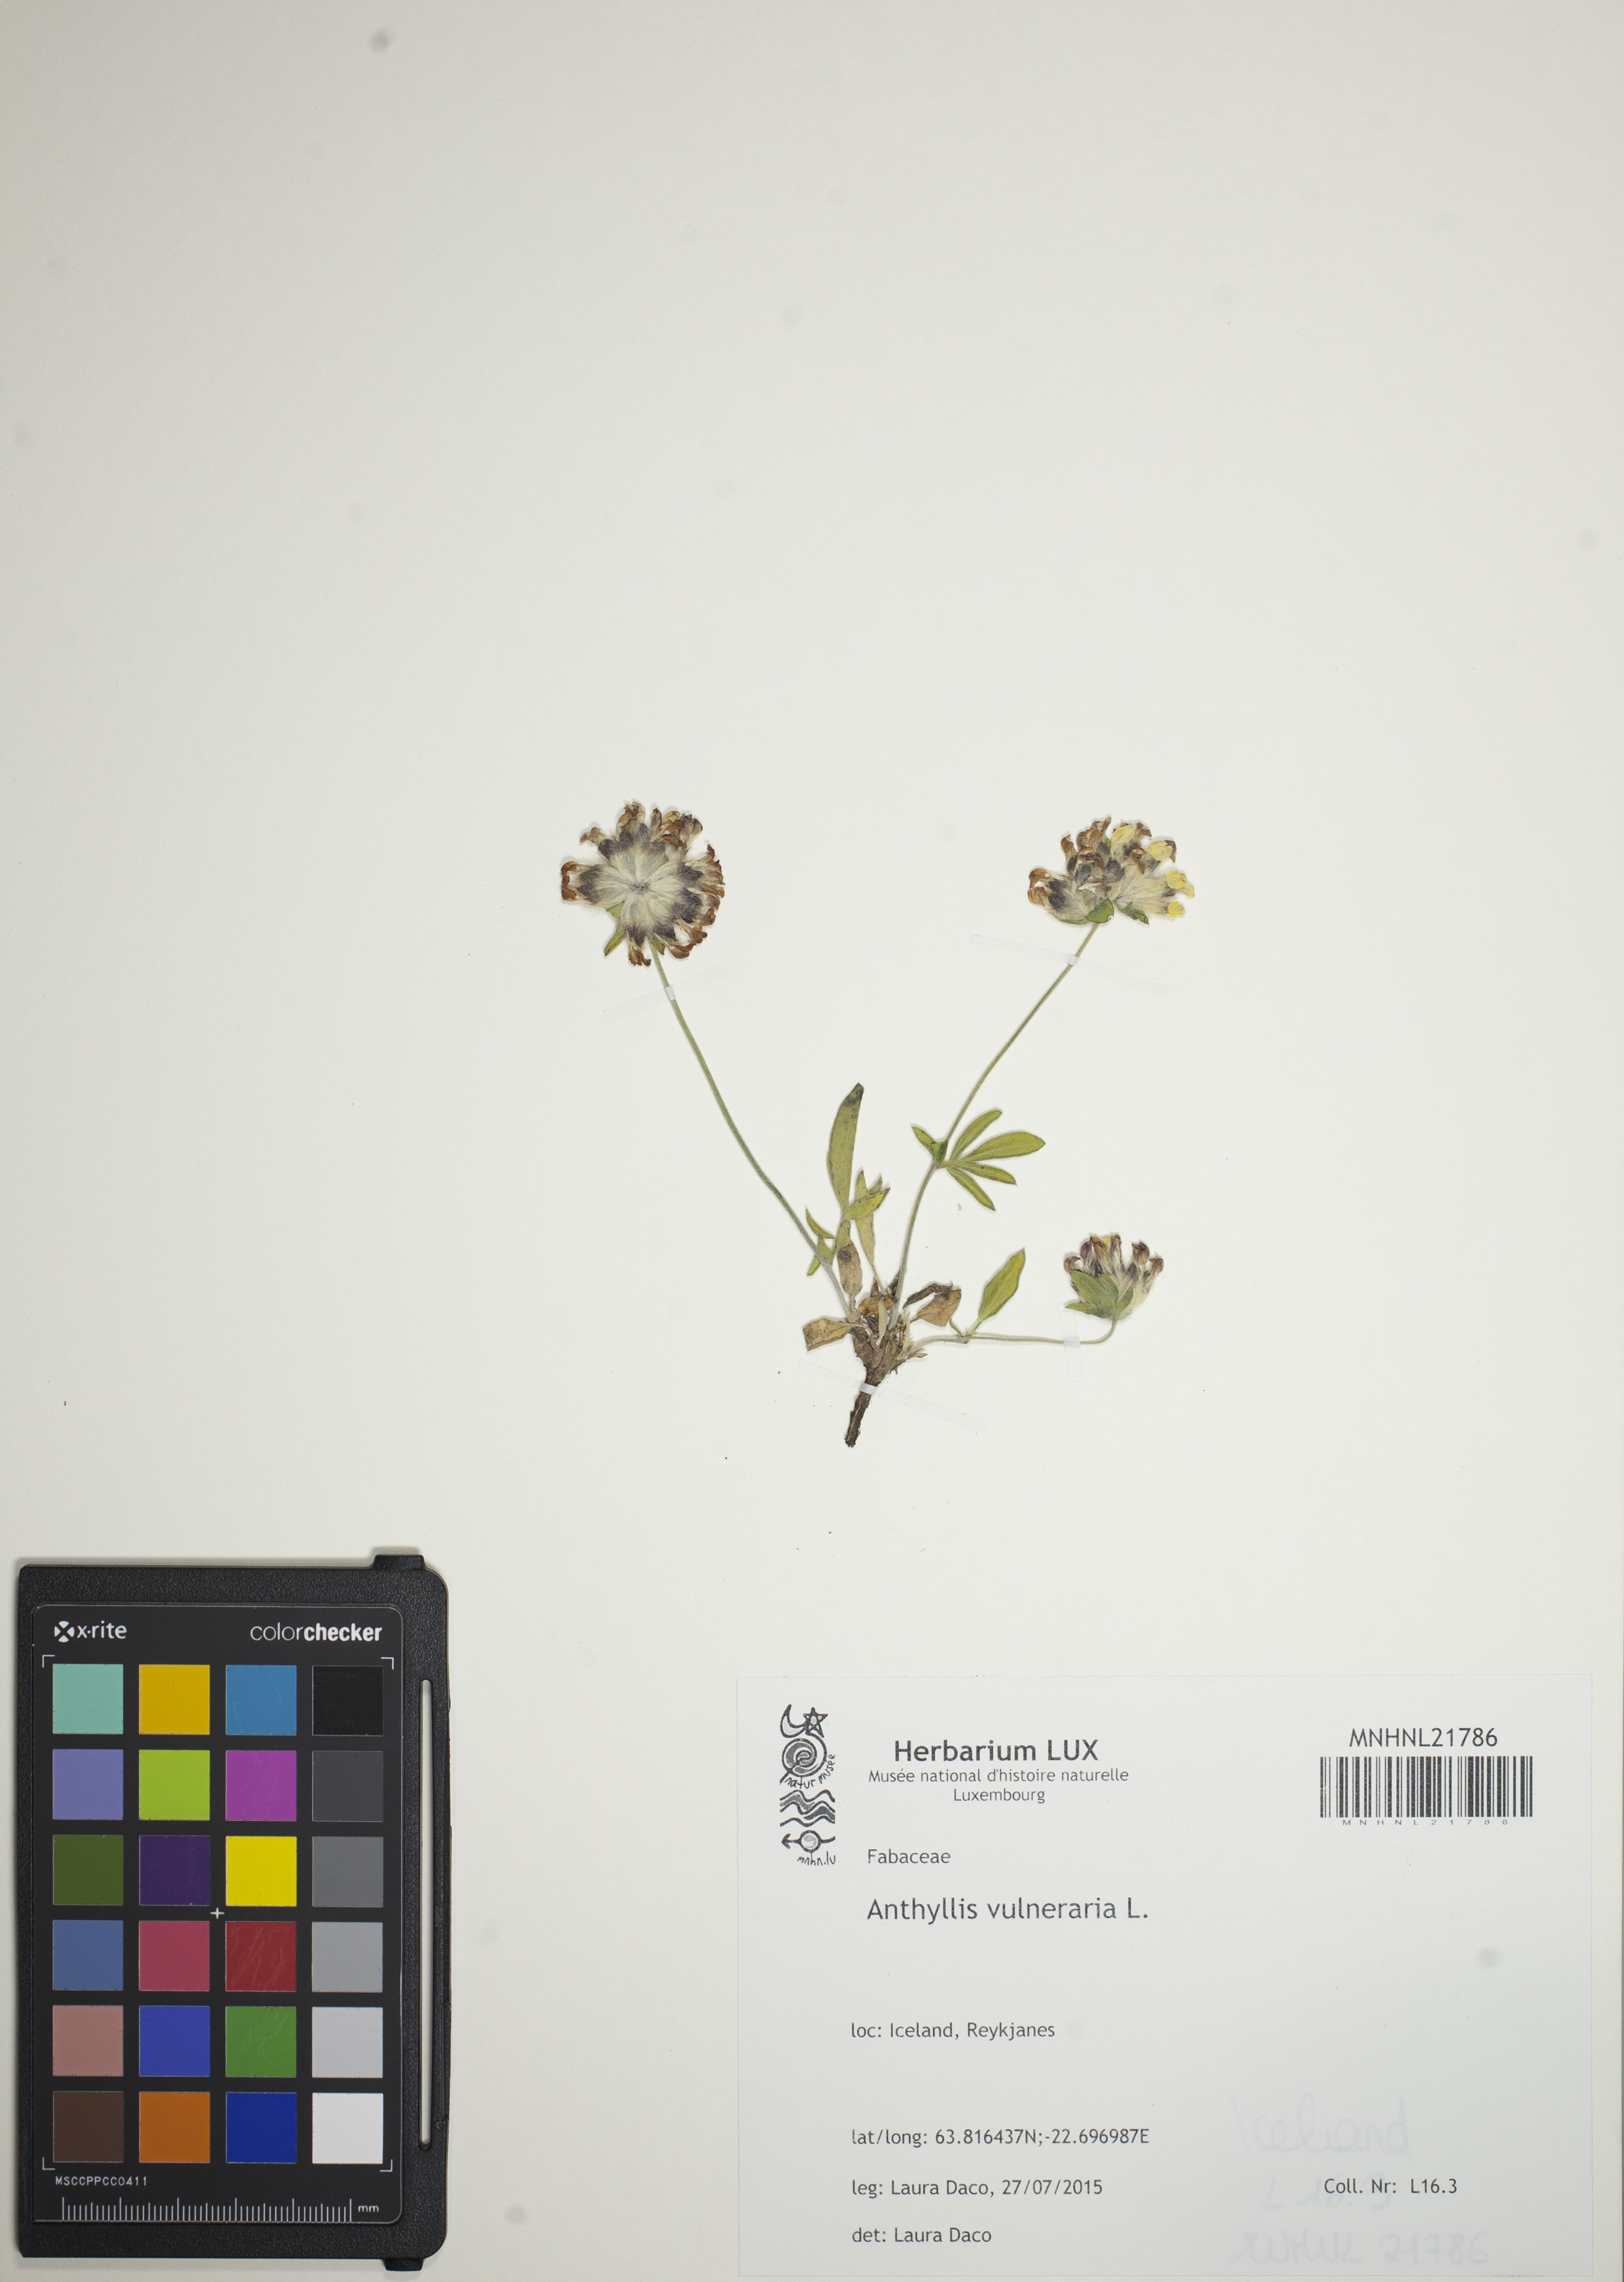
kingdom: Plantae
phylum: Tracheophyta
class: Magnoliopsida
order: Fabales
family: Fabaceae
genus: Anthyllis
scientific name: Anthyllis vulneraria
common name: Kidney vetch
